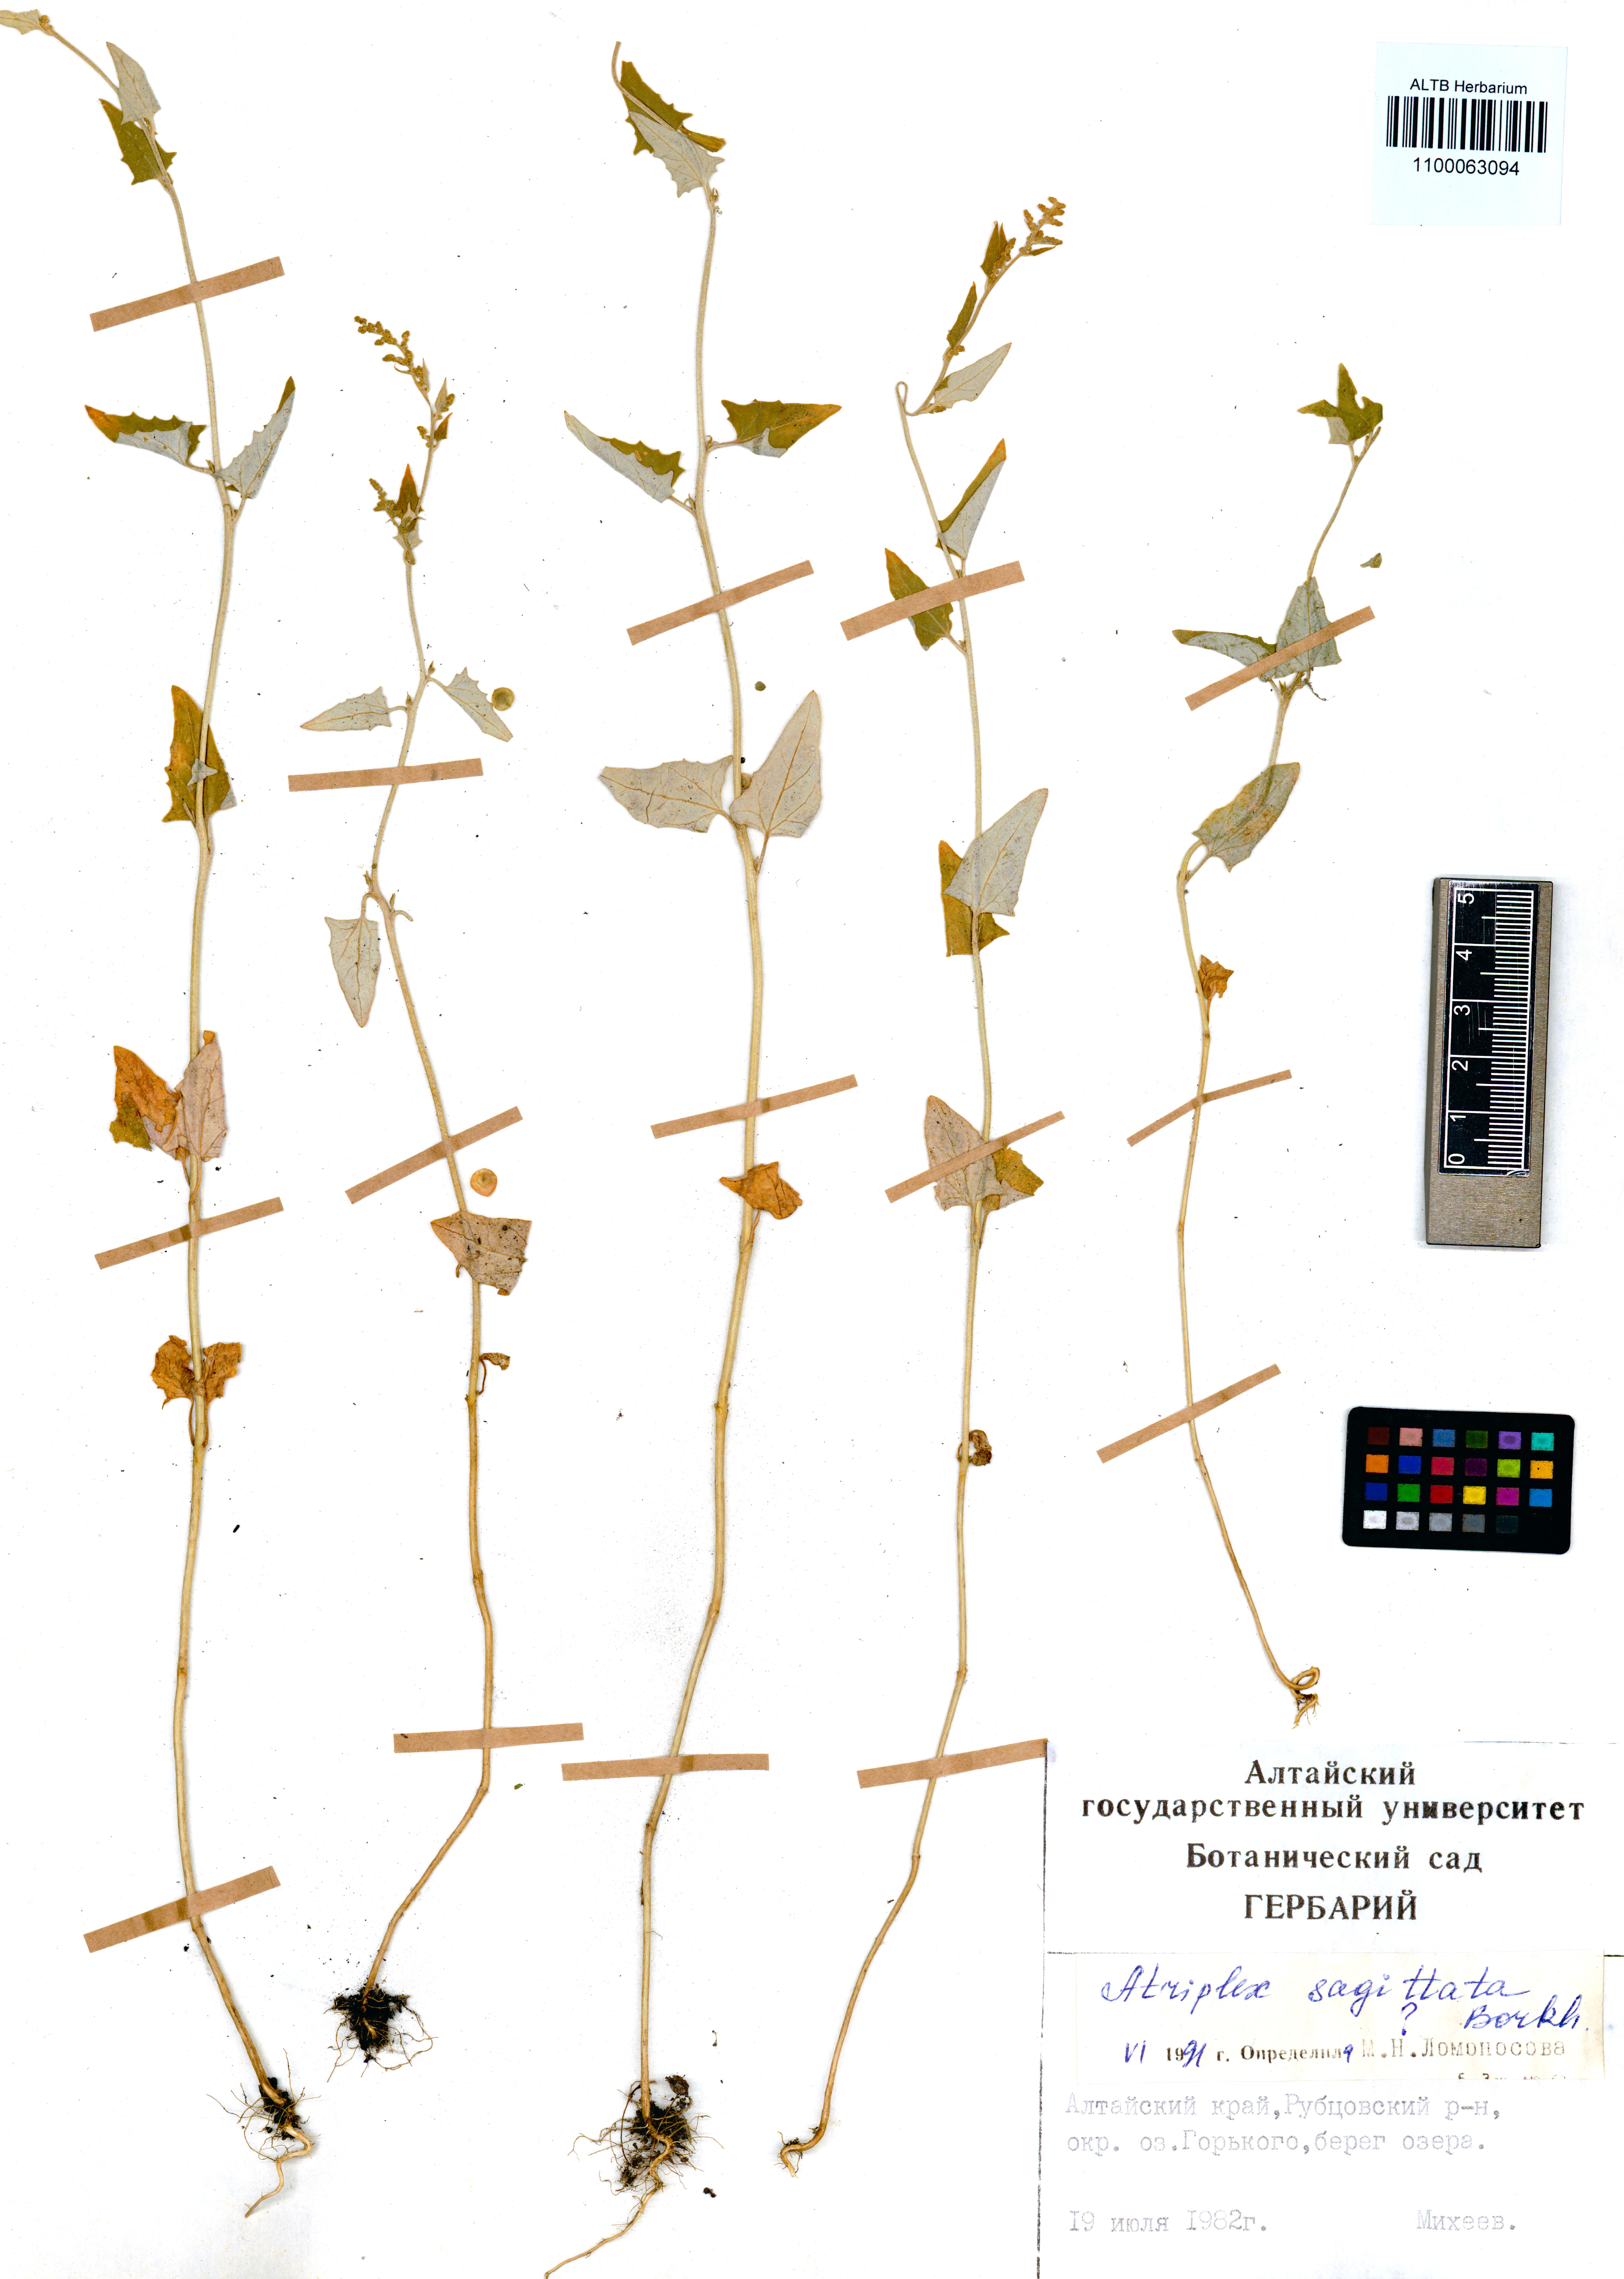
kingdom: Plantae
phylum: Tracheophyta
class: Magnoliopsida
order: Caryophyllales
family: Amaranthaceae
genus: Atriplex
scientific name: Atriplex sagittata
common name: Purple orache
